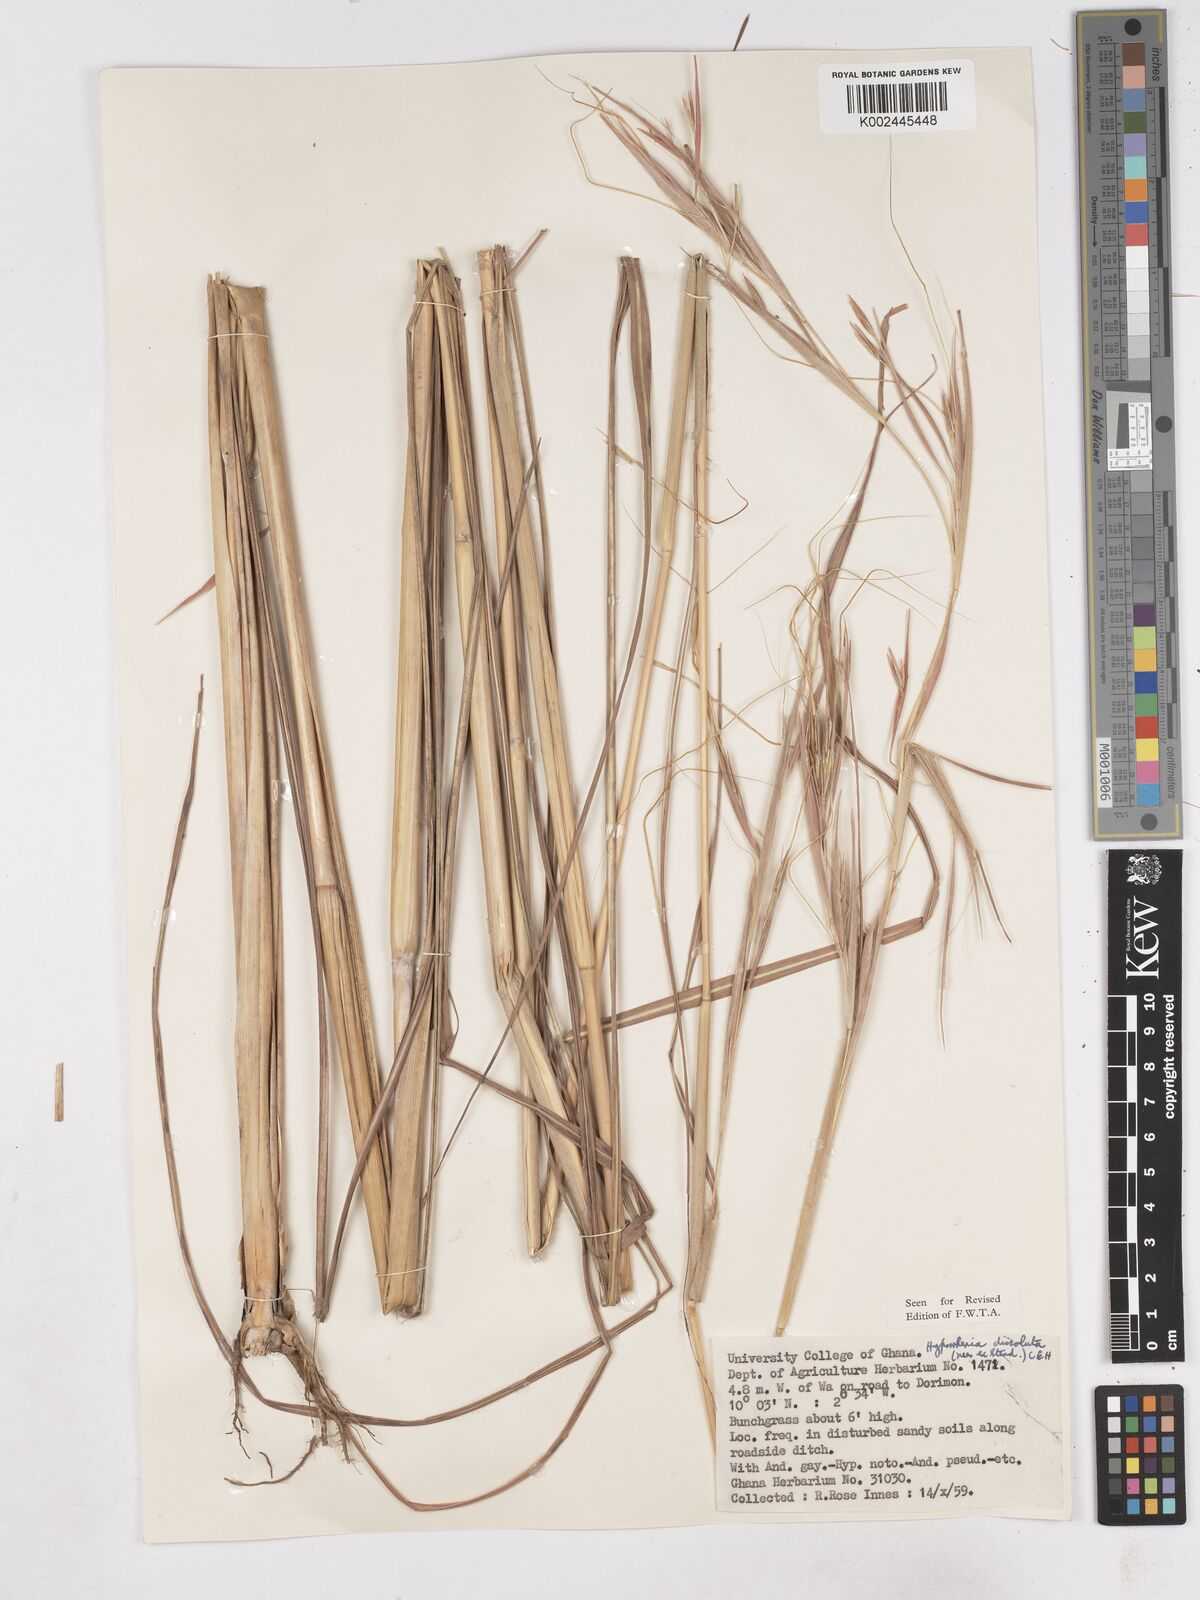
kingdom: Plantae
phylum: Tracheophyta
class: Liliopsida
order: Poales
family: Poaceae
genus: Hyperthelia
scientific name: Hyperthelia dissoluta
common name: Yellow thatching grass
